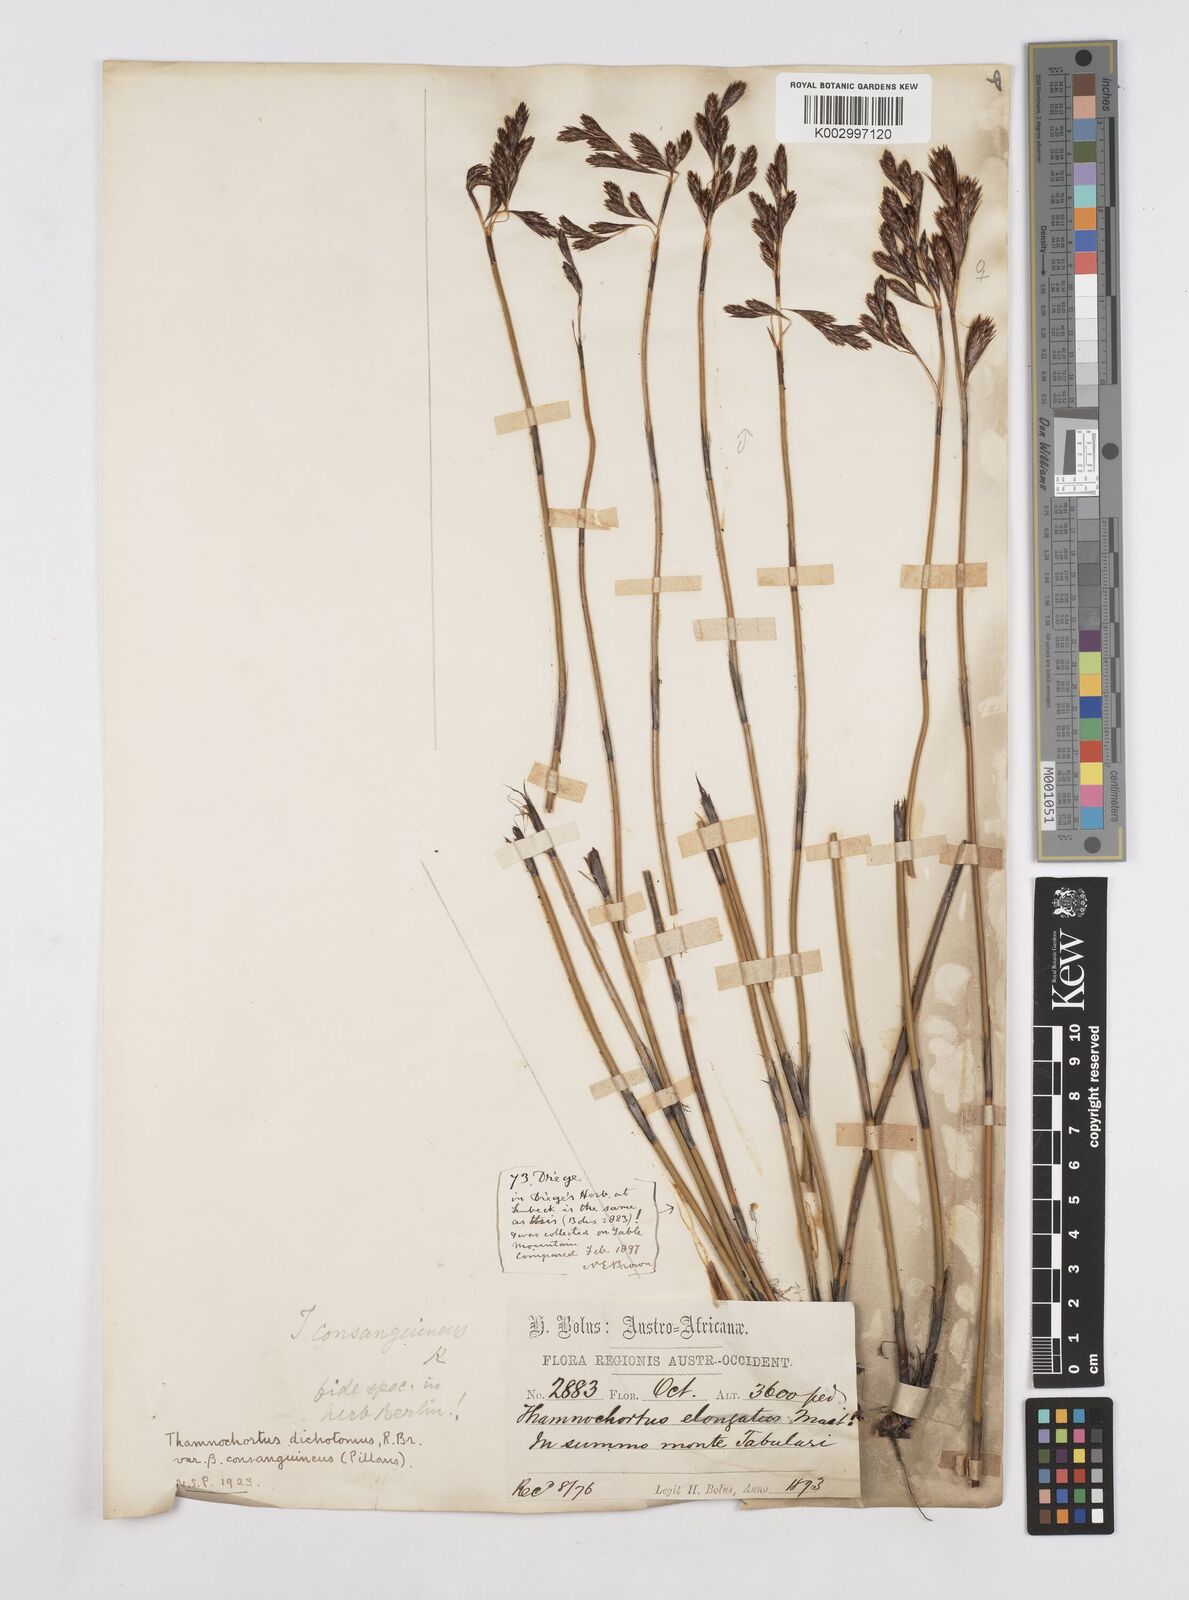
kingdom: Plantae
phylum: Tracheophyta
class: Liliopsida
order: Poales
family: Restionaceae
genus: Thamnochortus
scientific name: Thamnochortus nutans
